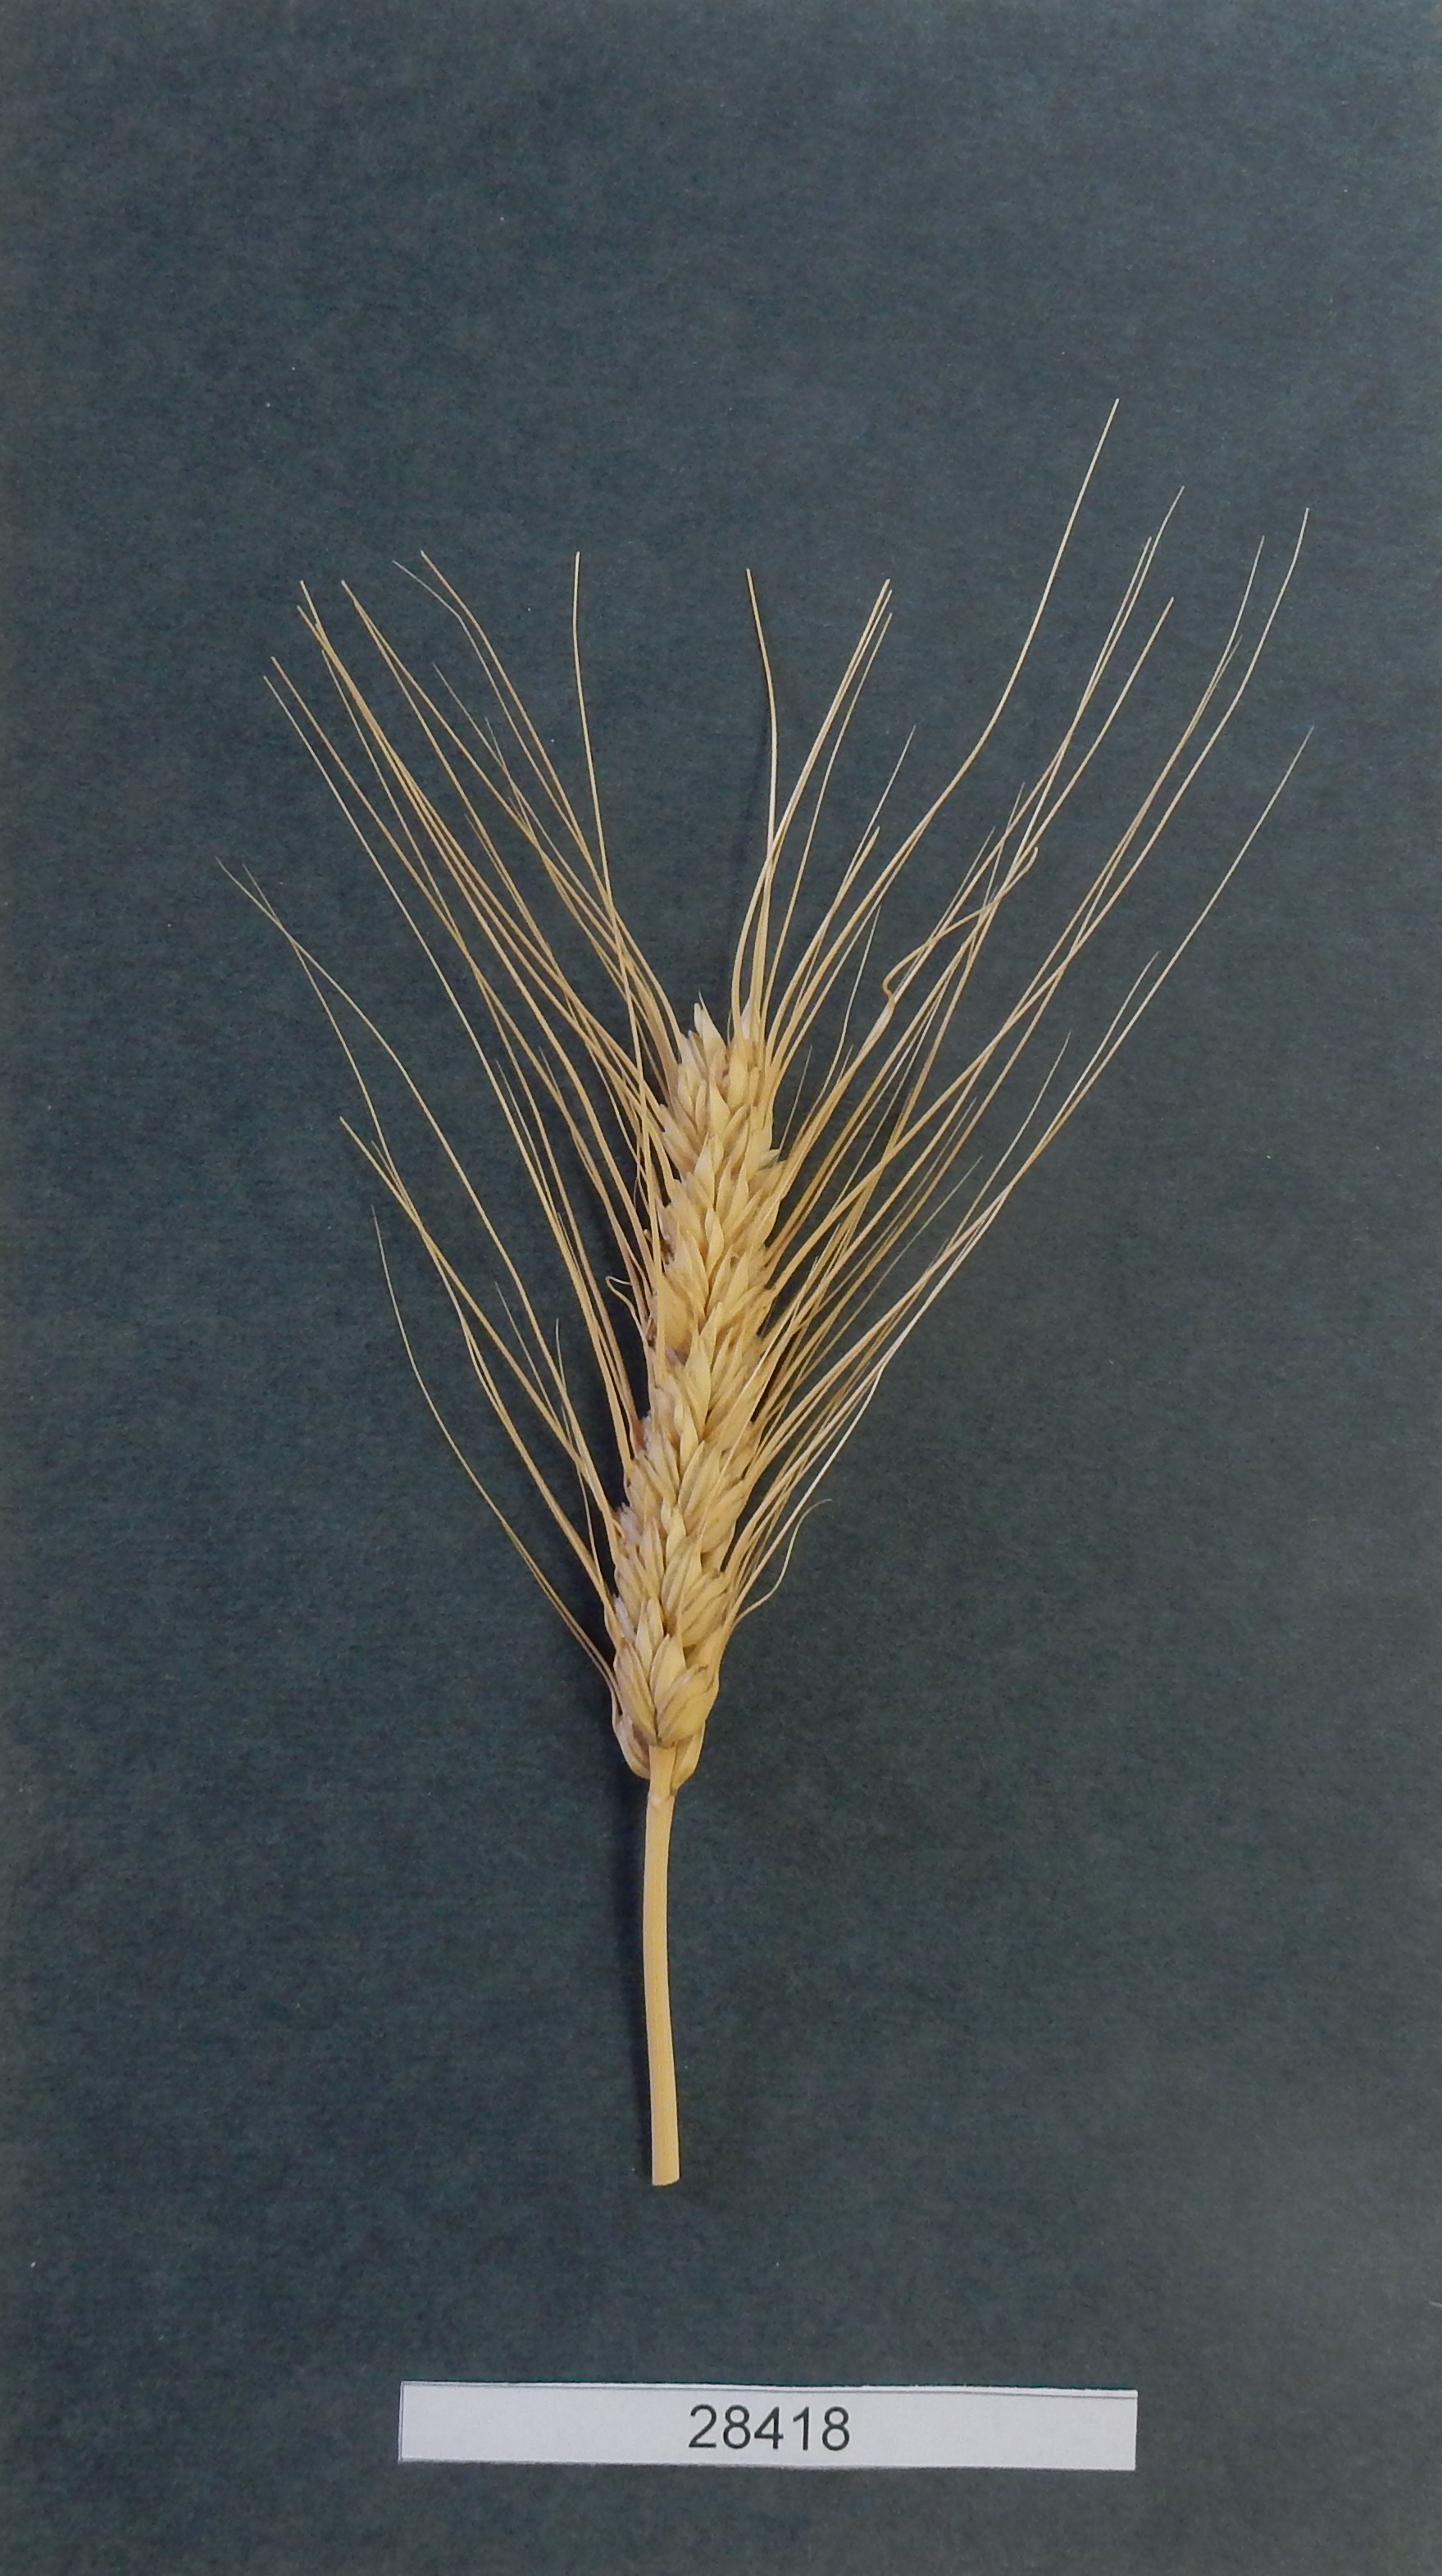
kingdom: Plantae
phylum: Tracheophyta
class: Liliopsida
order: Poales
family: Poaceae
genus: Triticum
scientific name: Triticum aestivum
